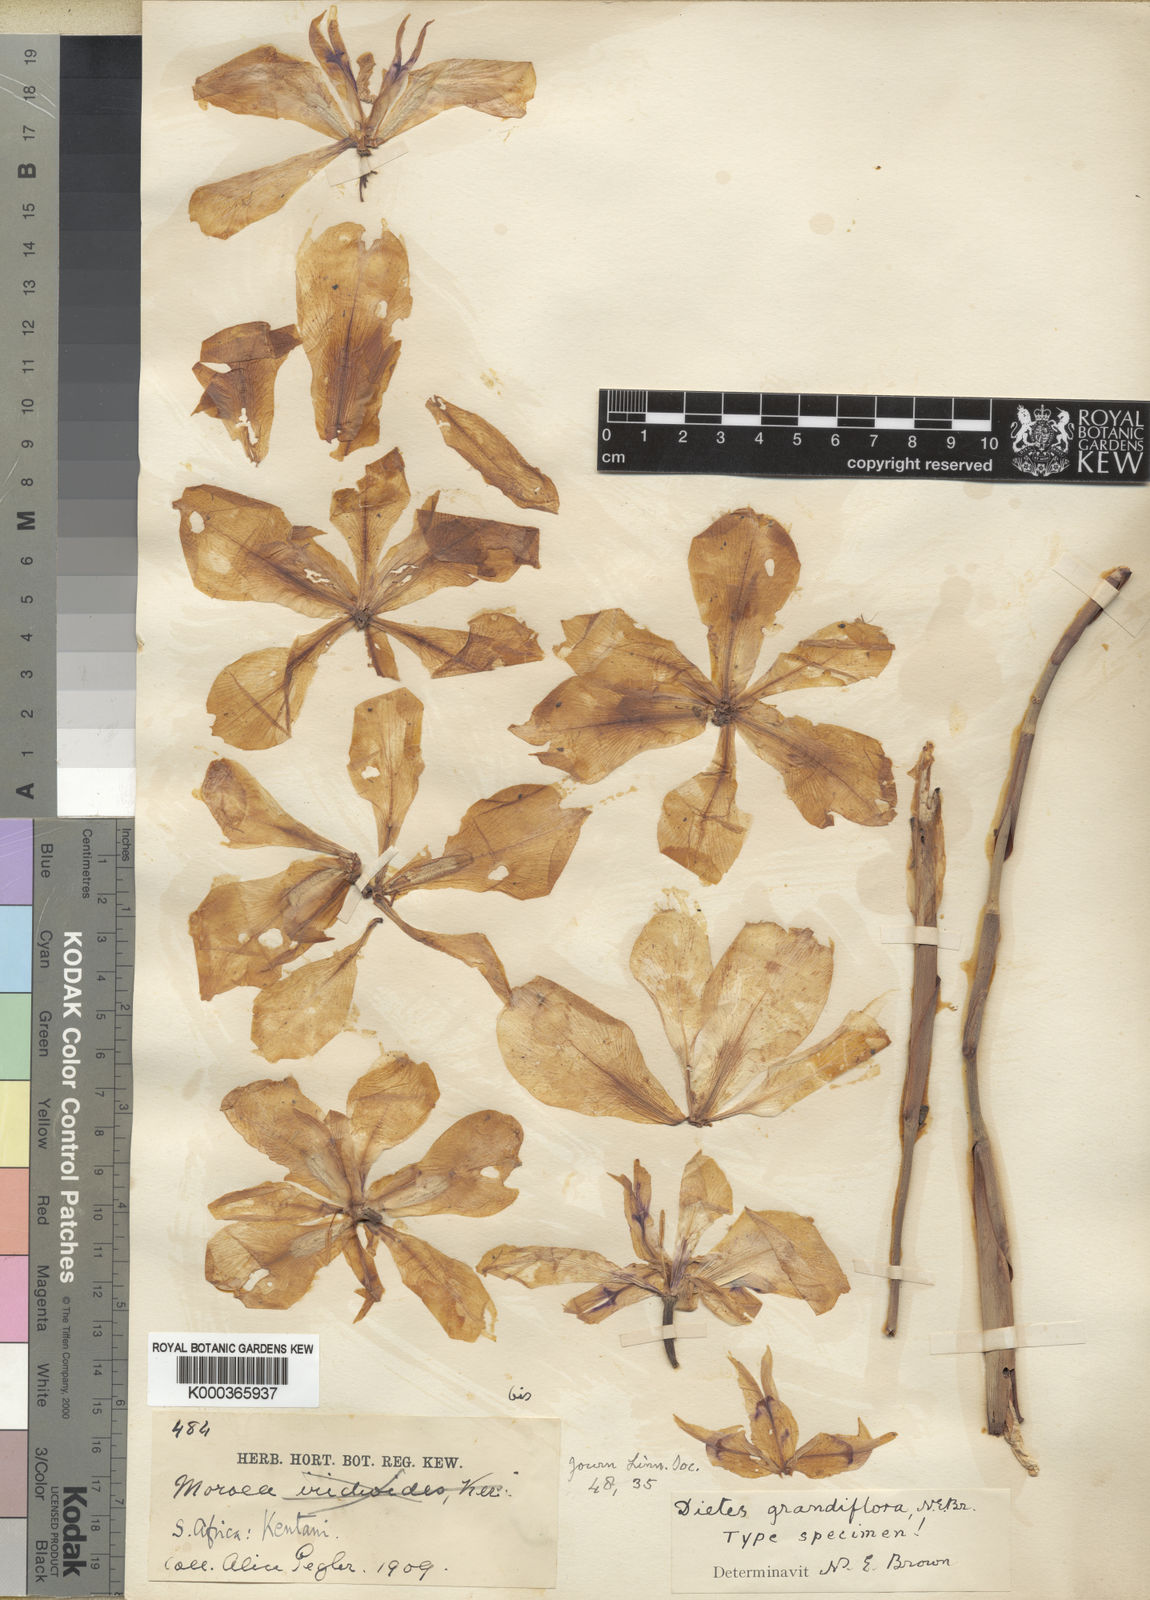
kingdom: Plantae
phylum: Tracheophyta
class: Liliopsida
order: Asparagales
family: Iridaceae
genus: Dietes
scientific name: Dietes grandiflora
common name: Wild iris
